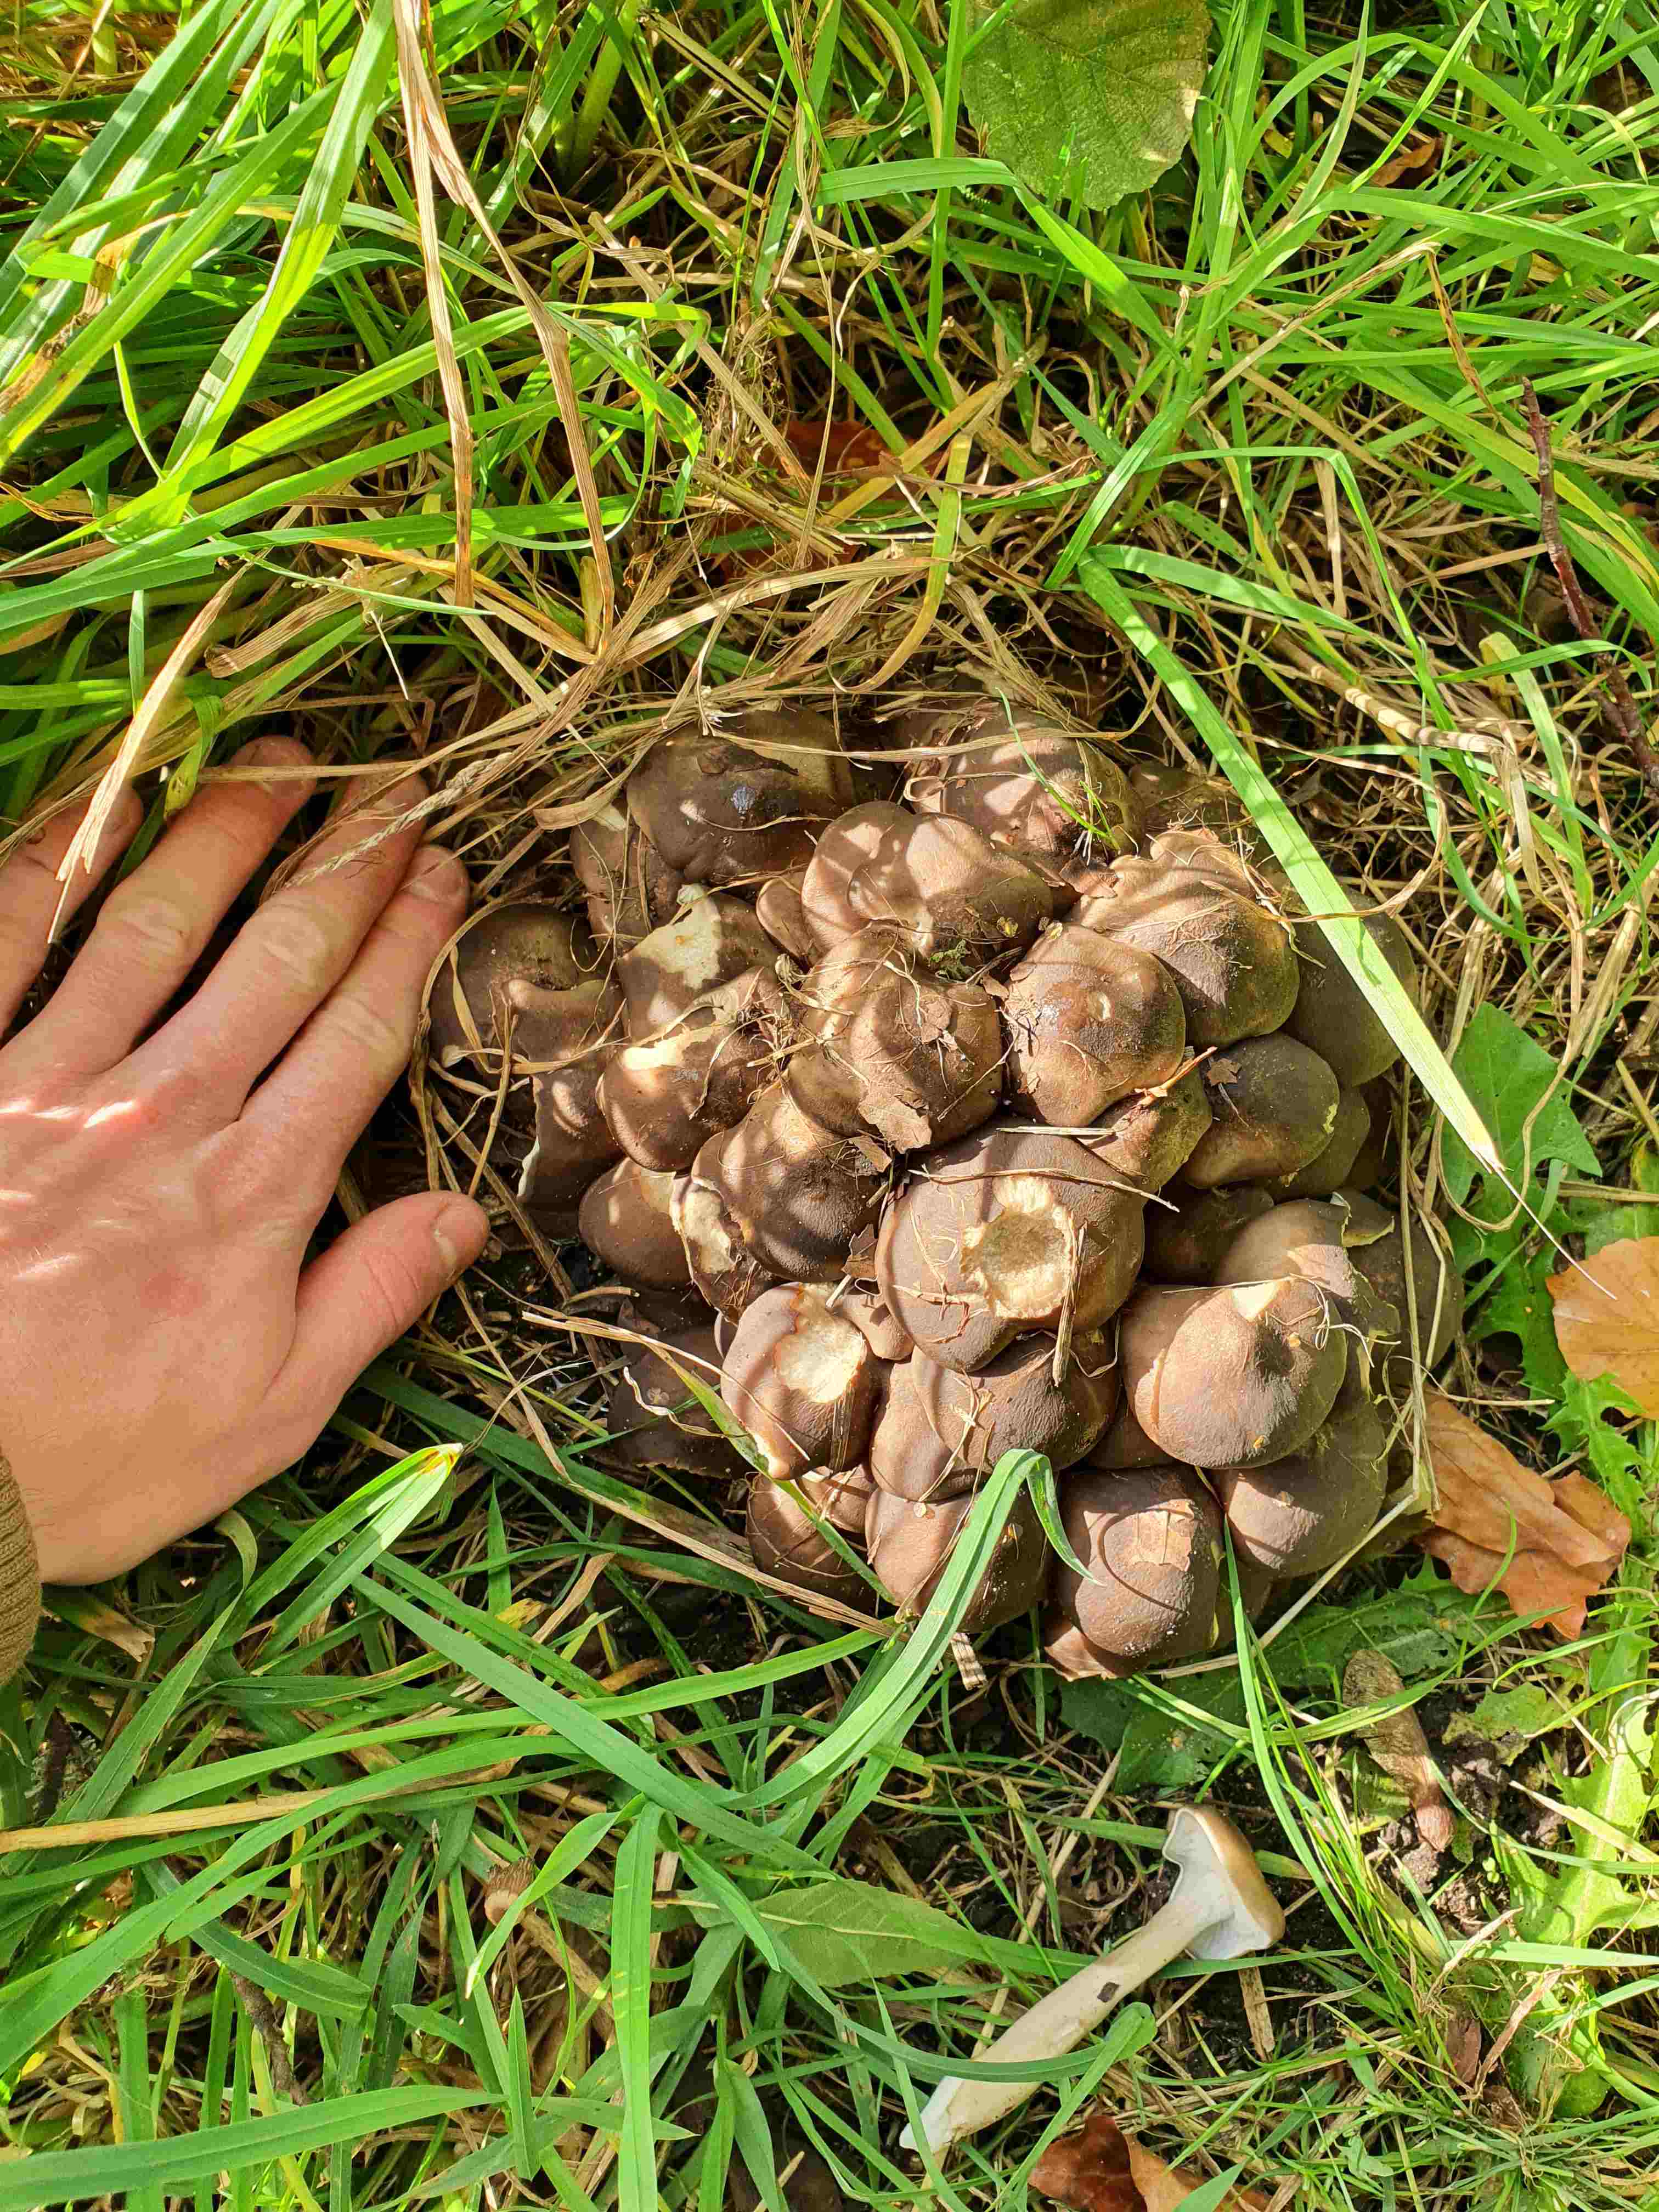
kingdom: Fungi
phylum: Basidiomycota
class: Agaricomycetes
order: Agaricales
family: Lyophyllaceae
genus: Lyophyllum
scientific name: Lyophyllum
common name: gråblad
